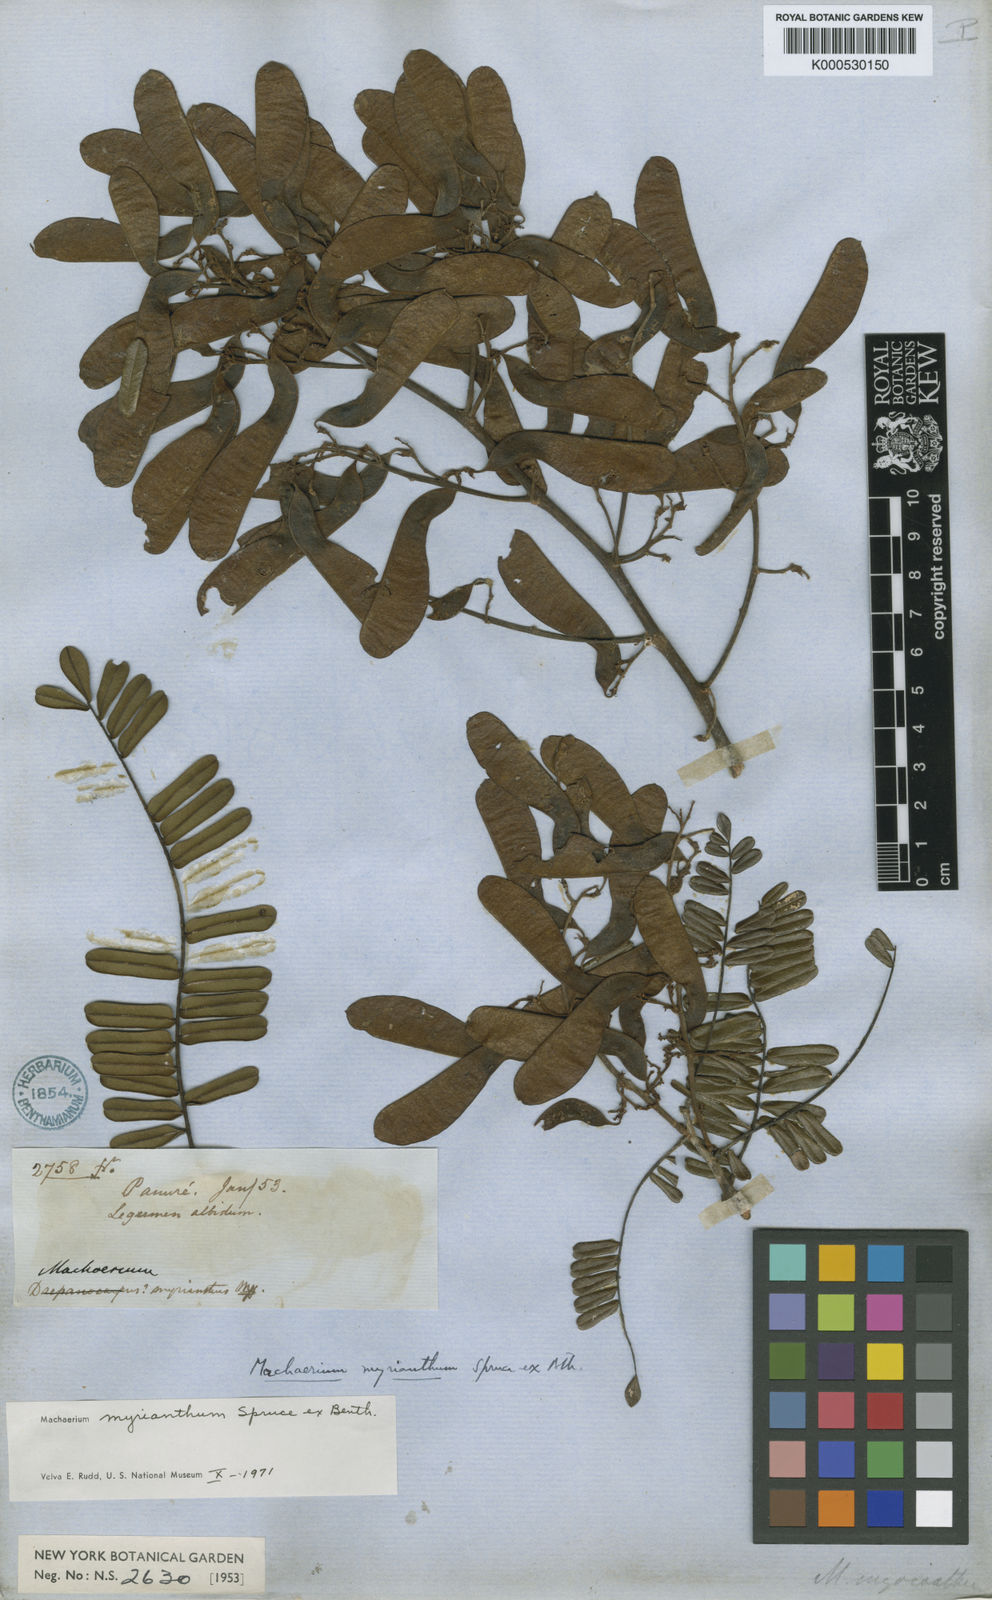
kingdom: Plantae
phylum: Tracheophyta
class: Magnoliopsida
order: Fabales
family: Fabaceae
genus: Machaerium
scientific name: Machaerium myrianthum
